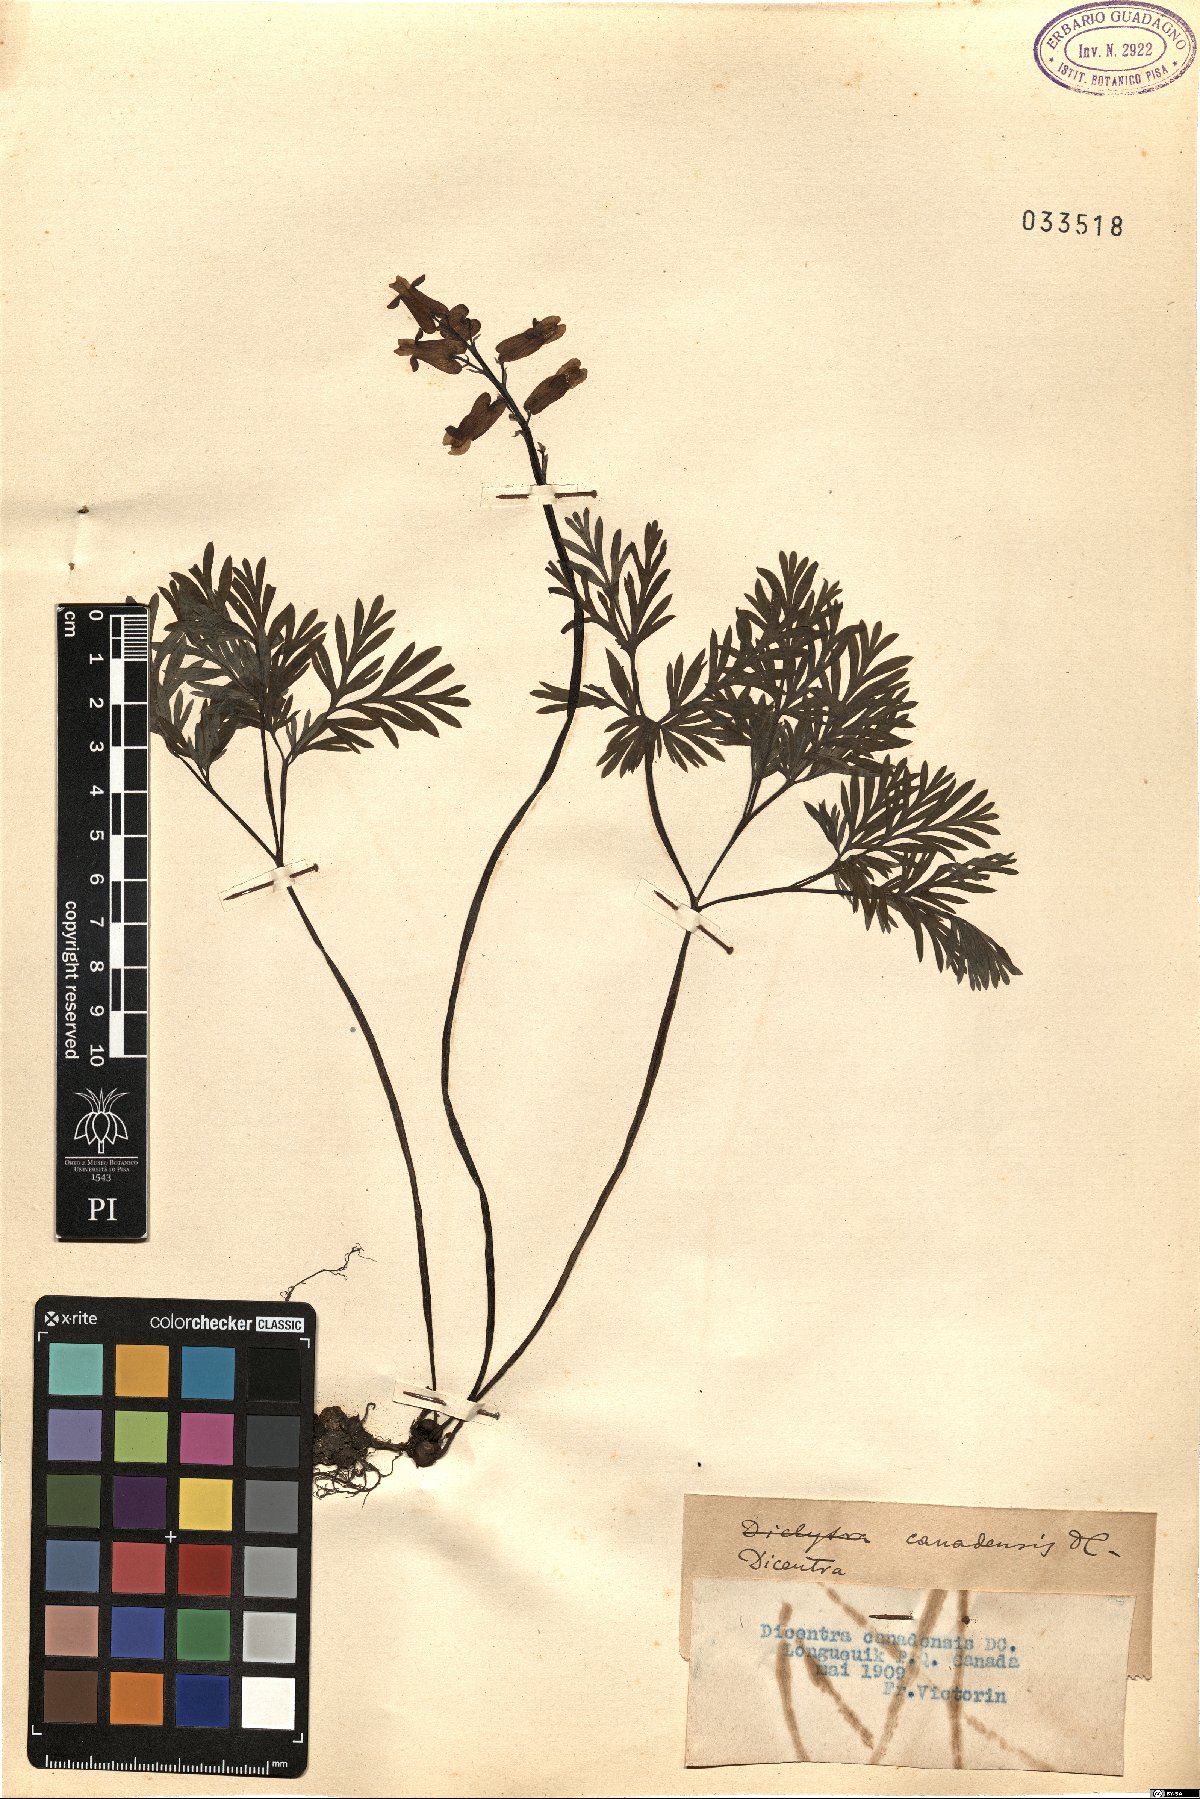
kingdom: Plantae
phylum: Tracheophyta
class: Magnoliopsida
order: Ranunculales
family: Papaveraceae
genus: Dicentra
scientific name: Dicentra canadensis
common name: Squirrel-corn
